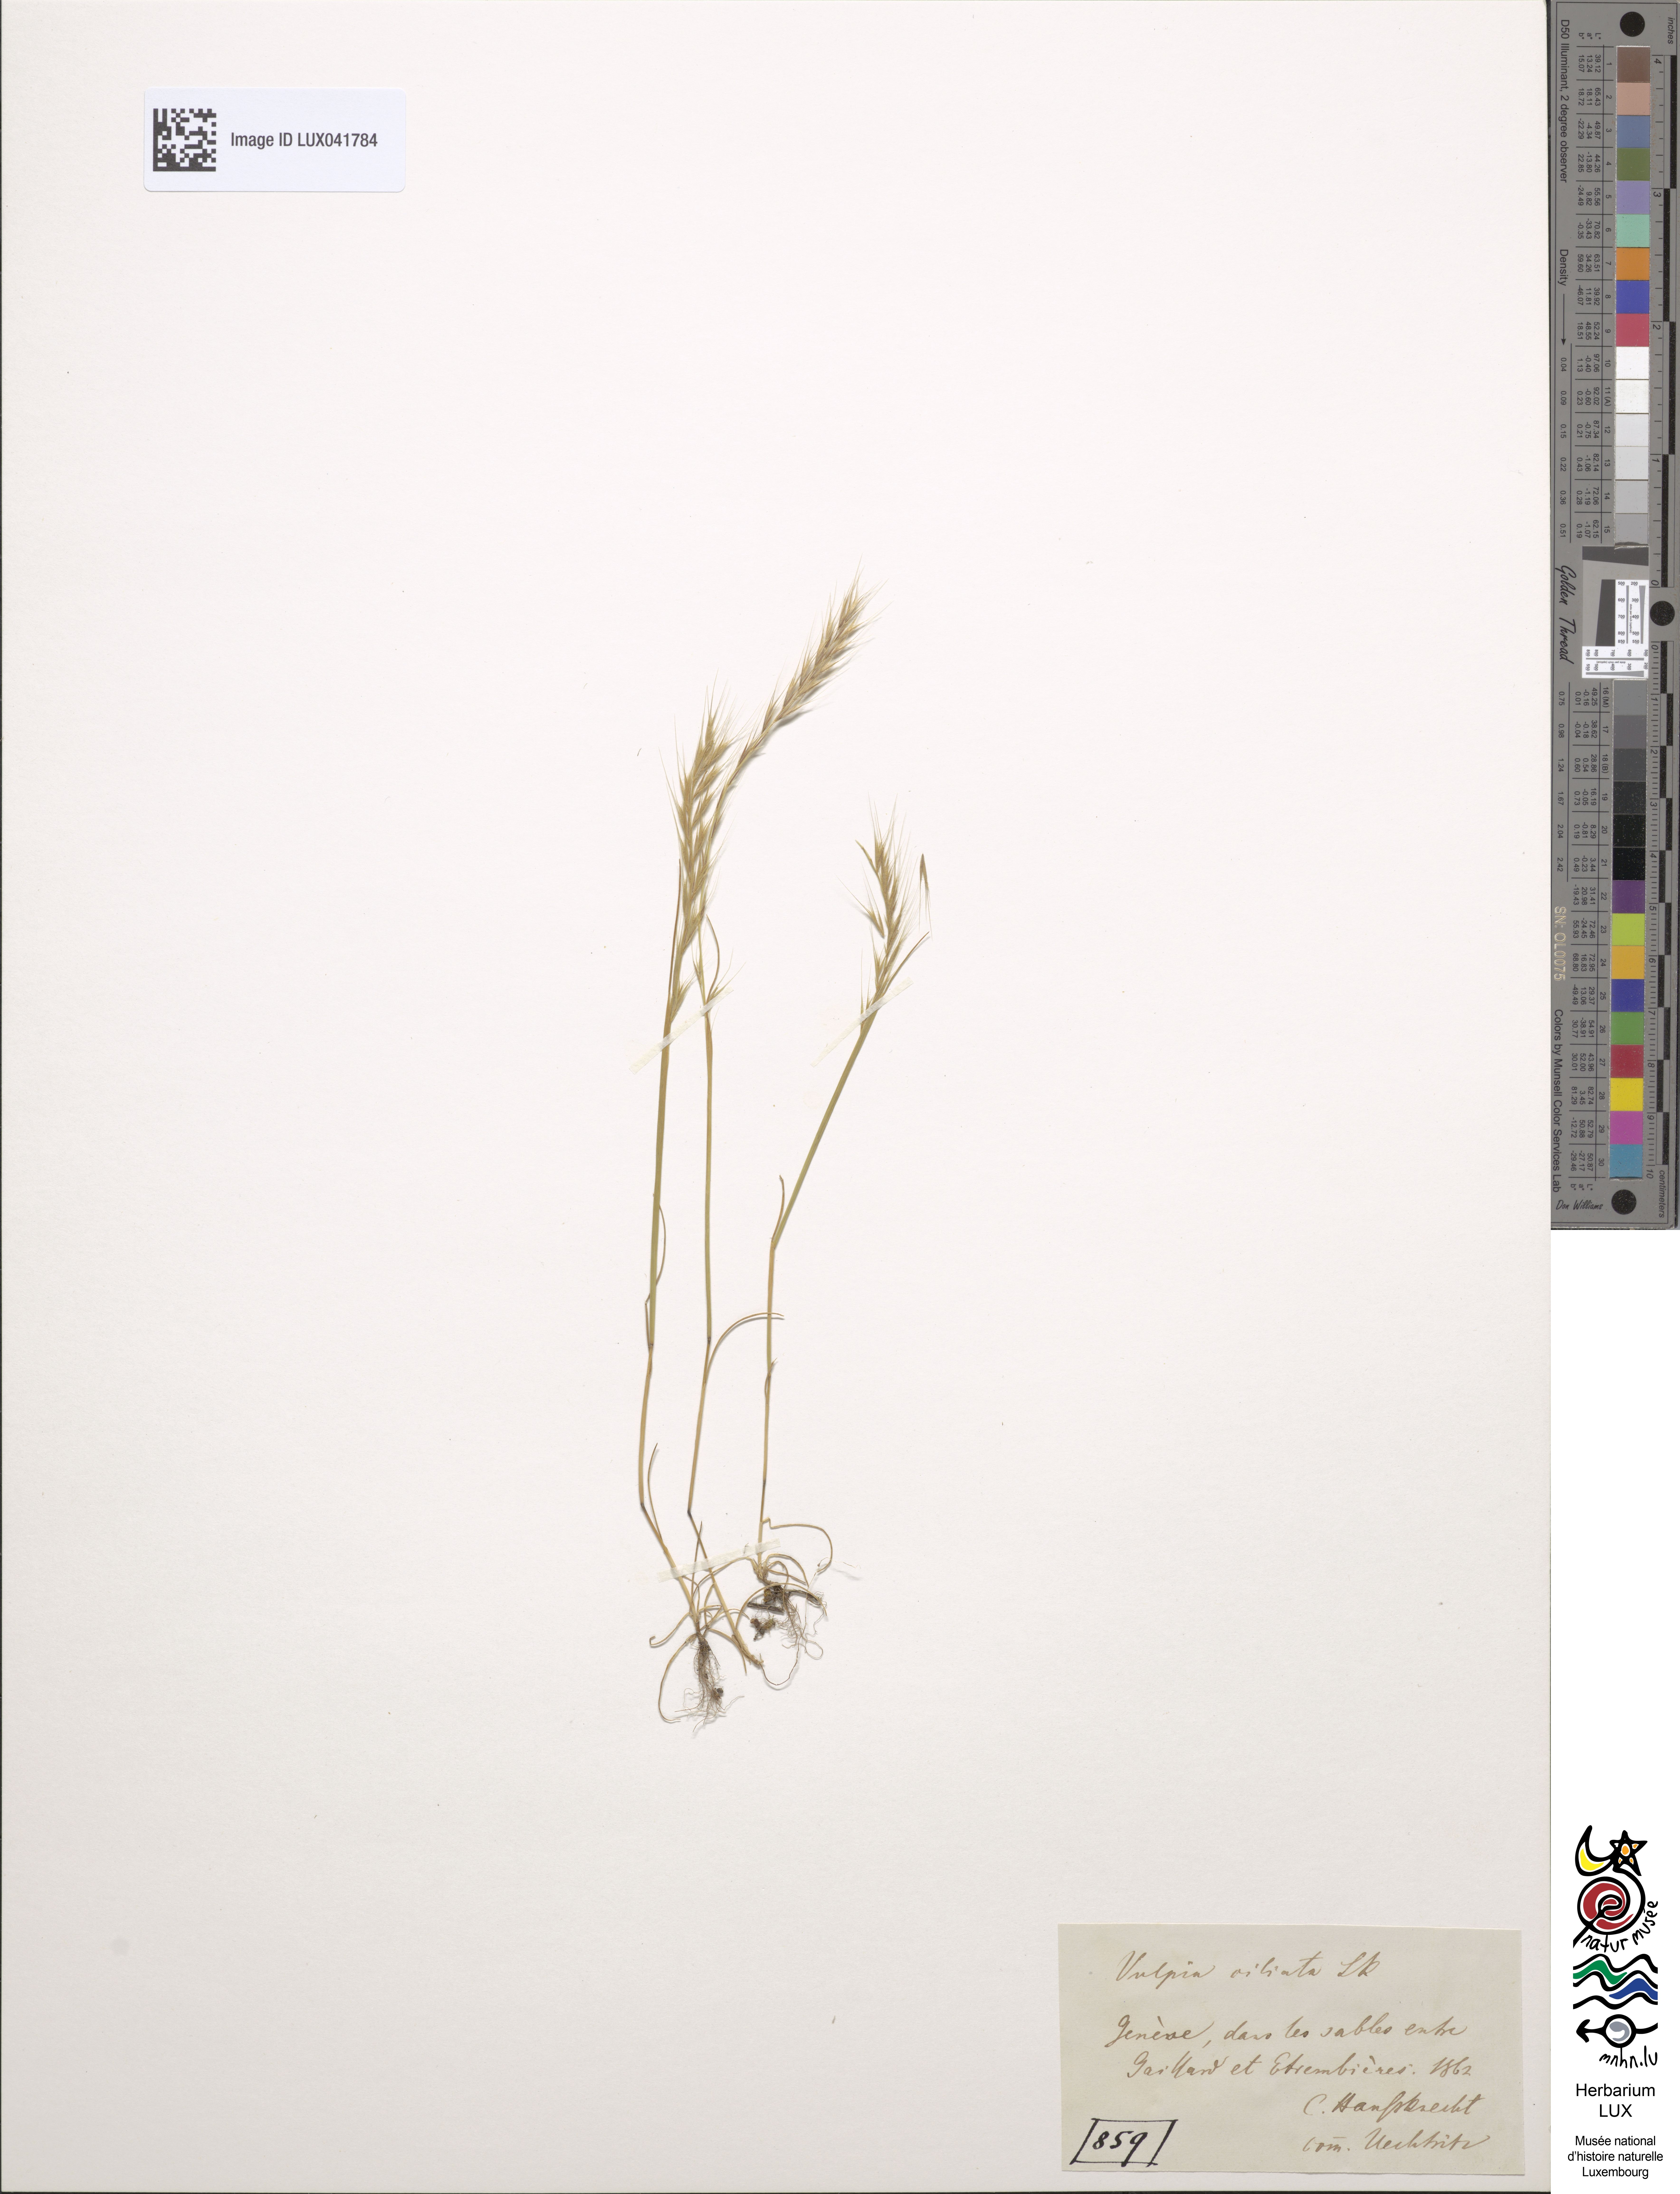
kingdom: Plantae
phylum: Tracheophyta
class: Liliopsida
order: Poales
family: Poaceae
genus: Festuca
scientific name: Festuca ambigua
